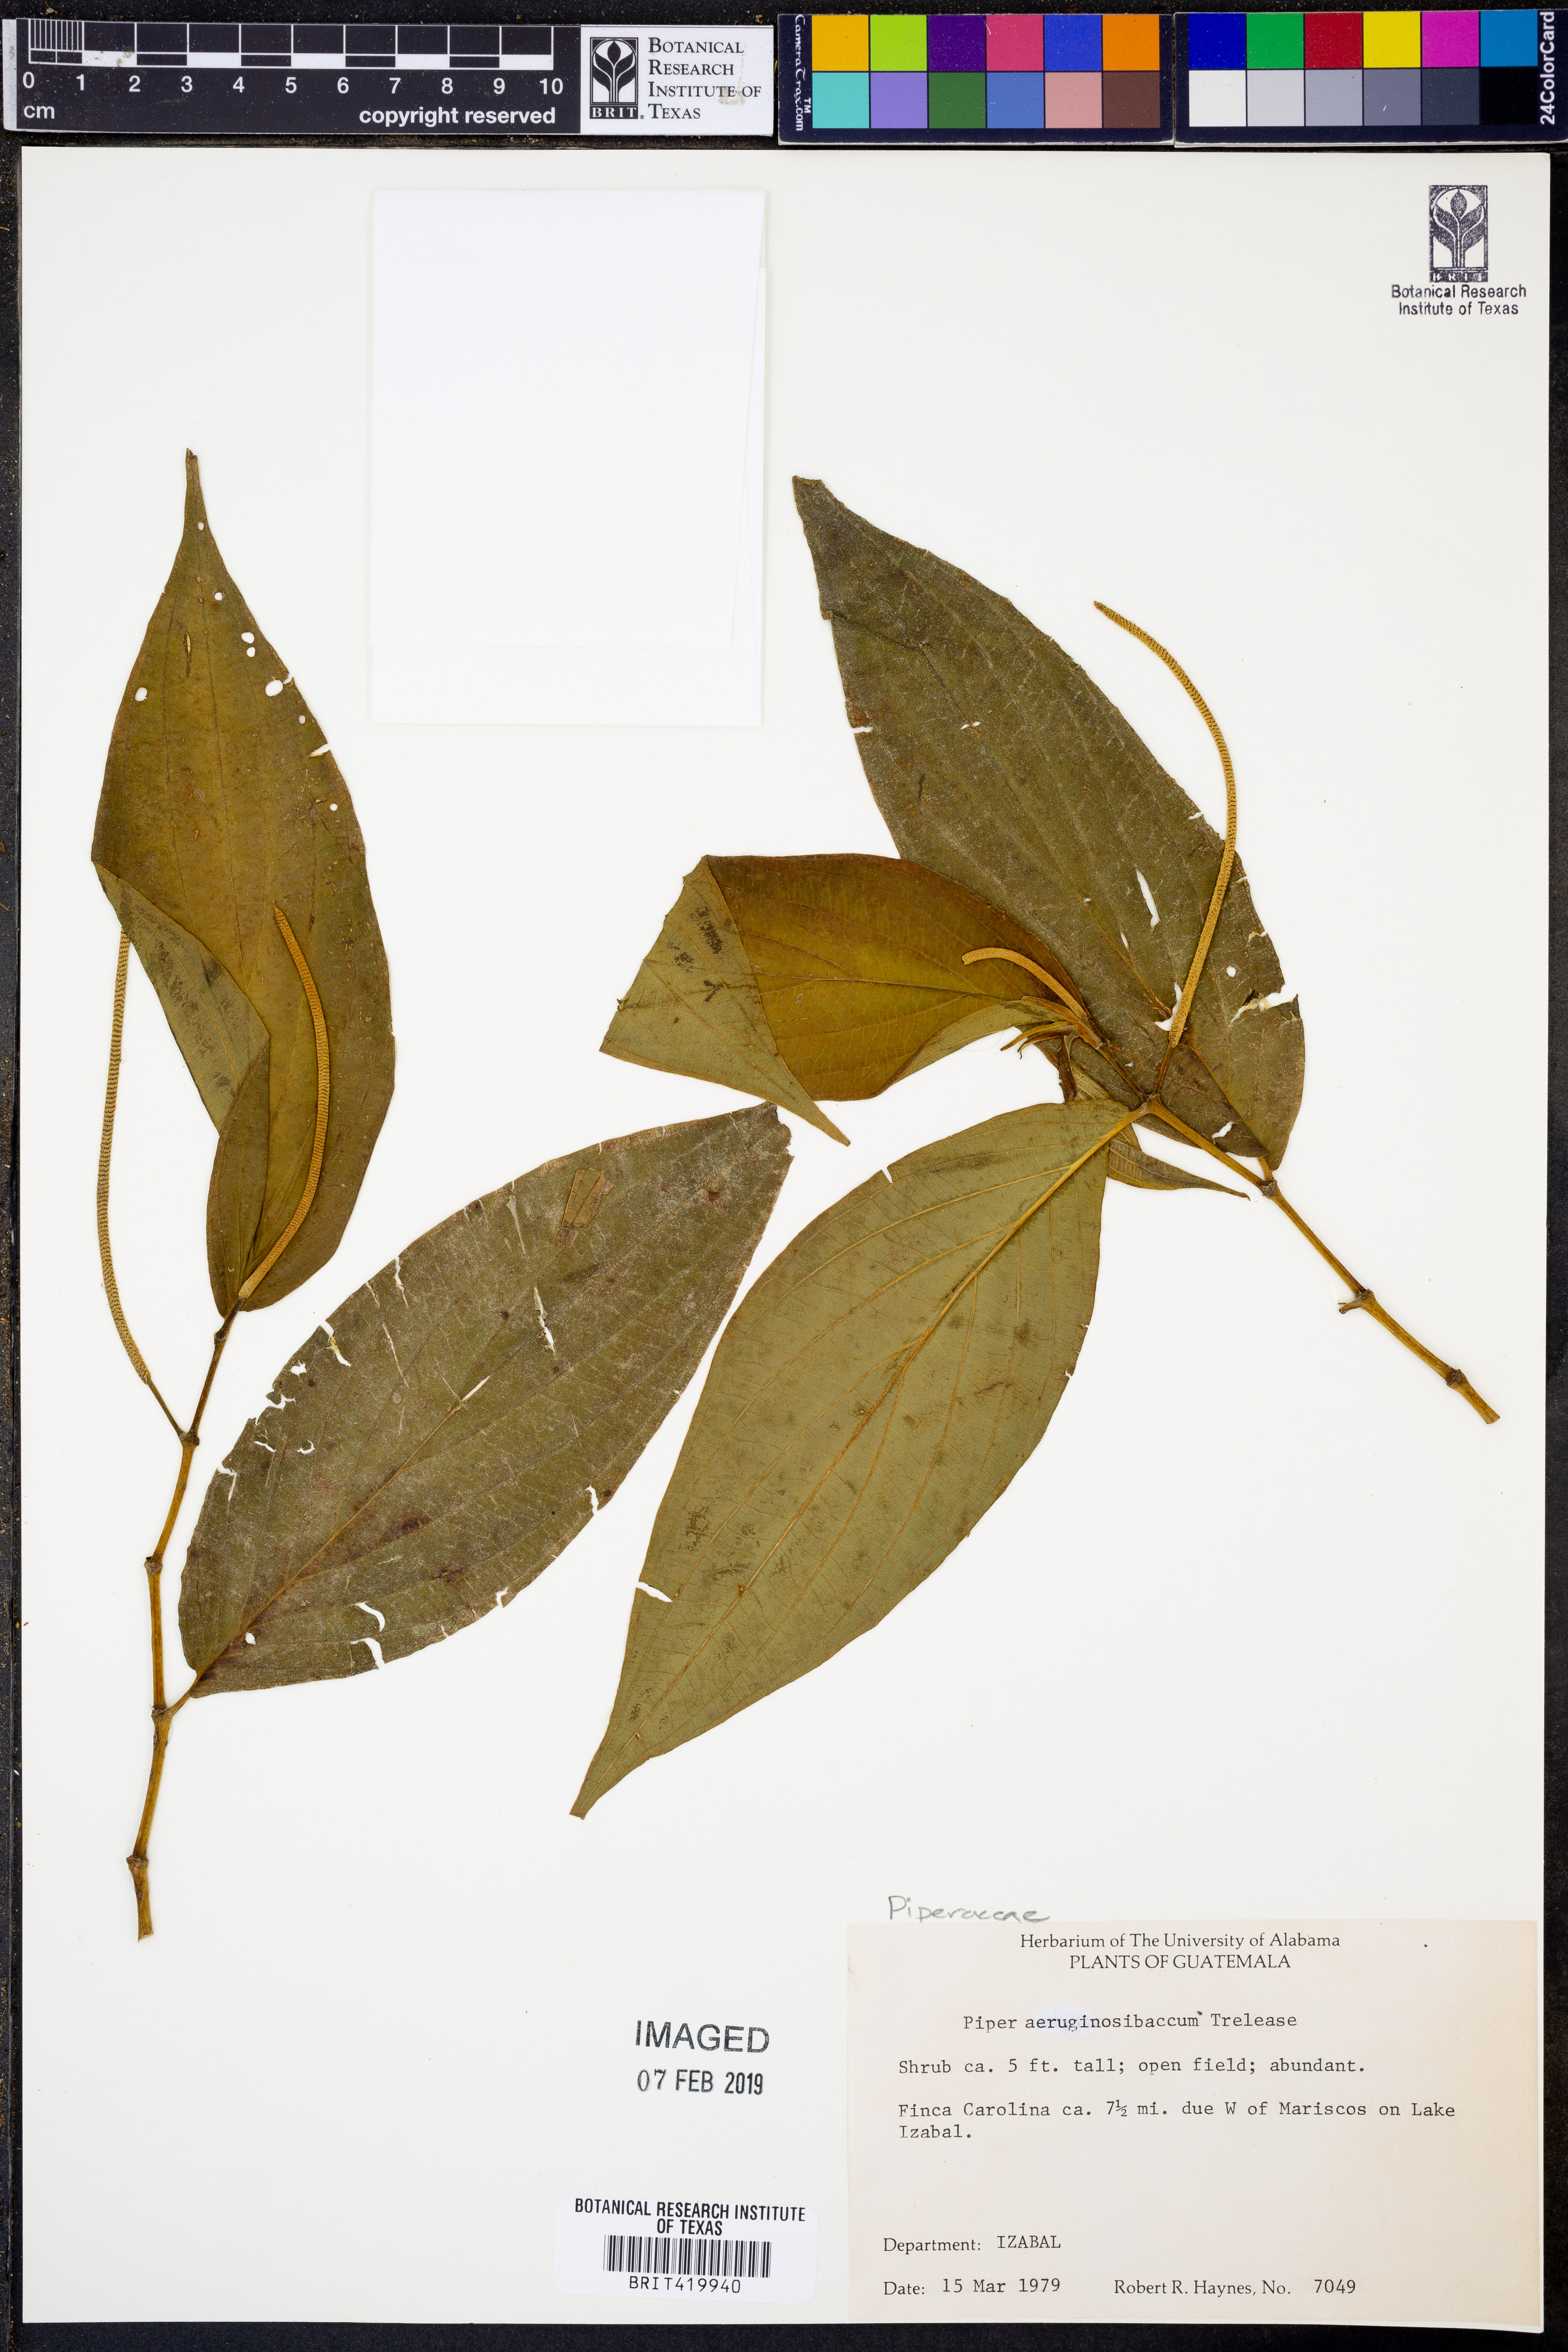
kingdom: Plantae
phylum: Tracheophyta
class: Magnoliopsida
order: Piperales
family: Piperaceae
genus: Piper
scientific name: Piper aeruginosibaccum
